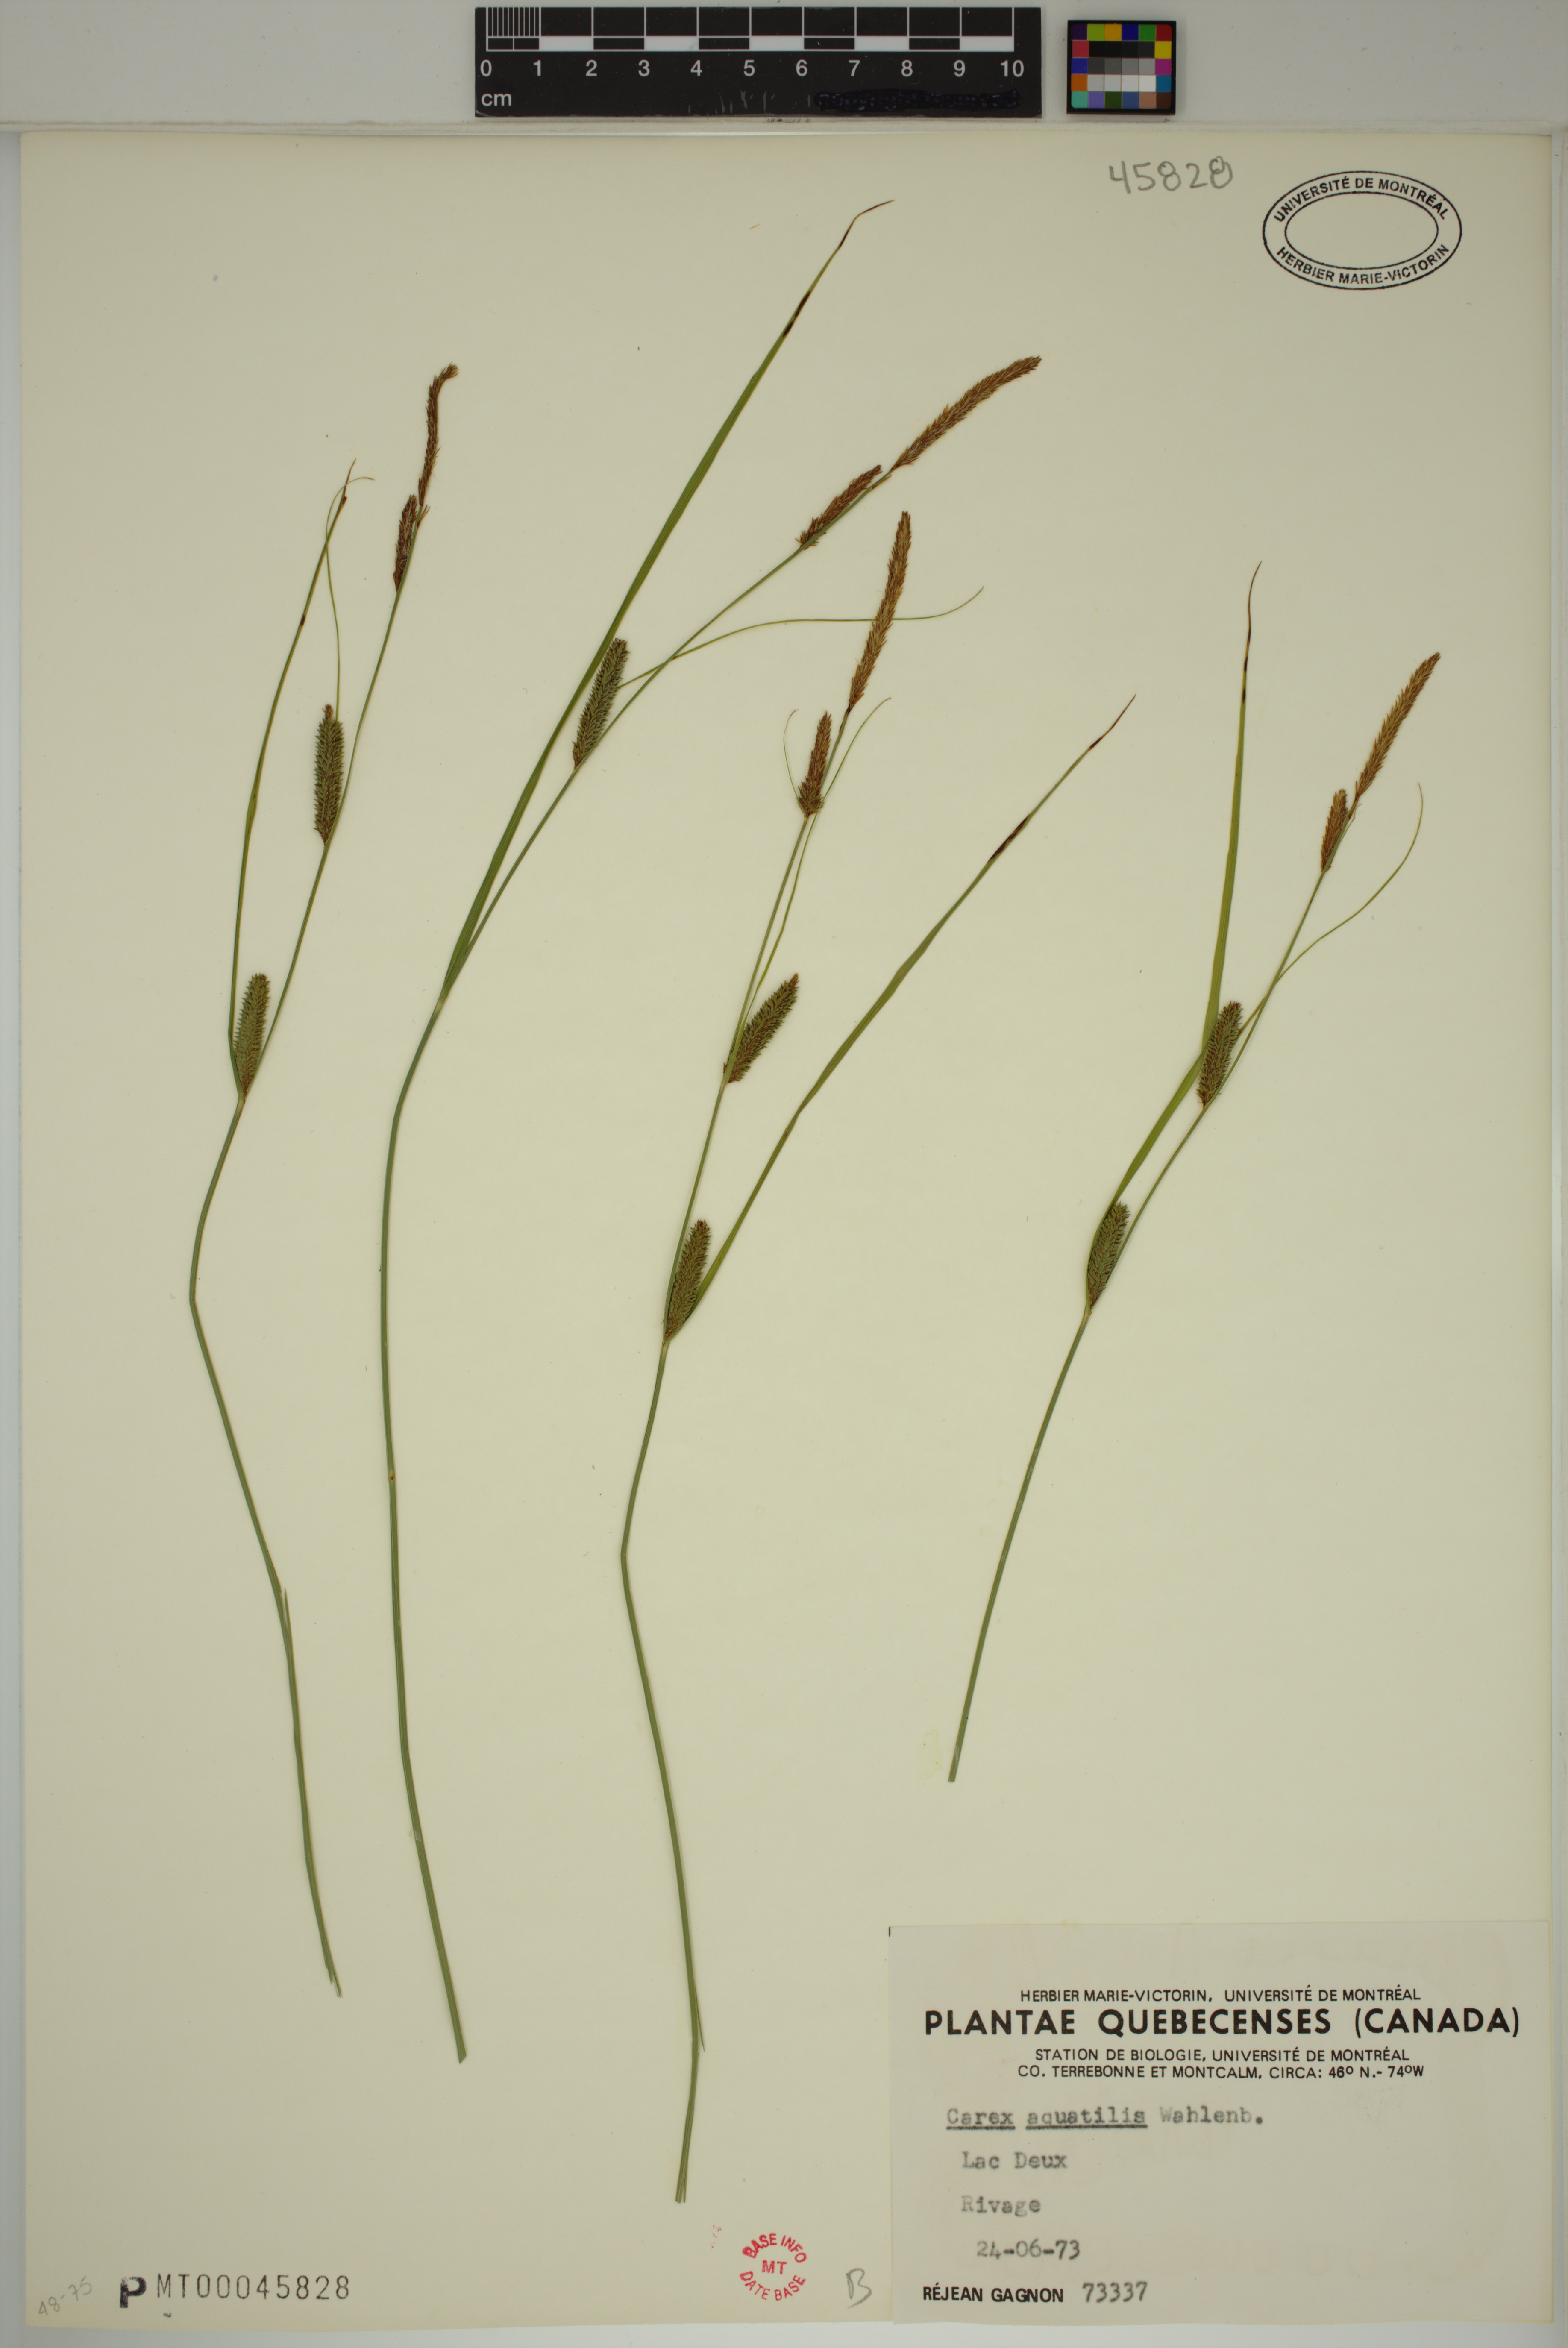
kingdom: Plantae
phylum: Tracheophyta
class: Liliopsida
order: Poales
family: Cyperaceae
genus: Carex
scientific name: Carex aquatilis
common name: Water sedge
